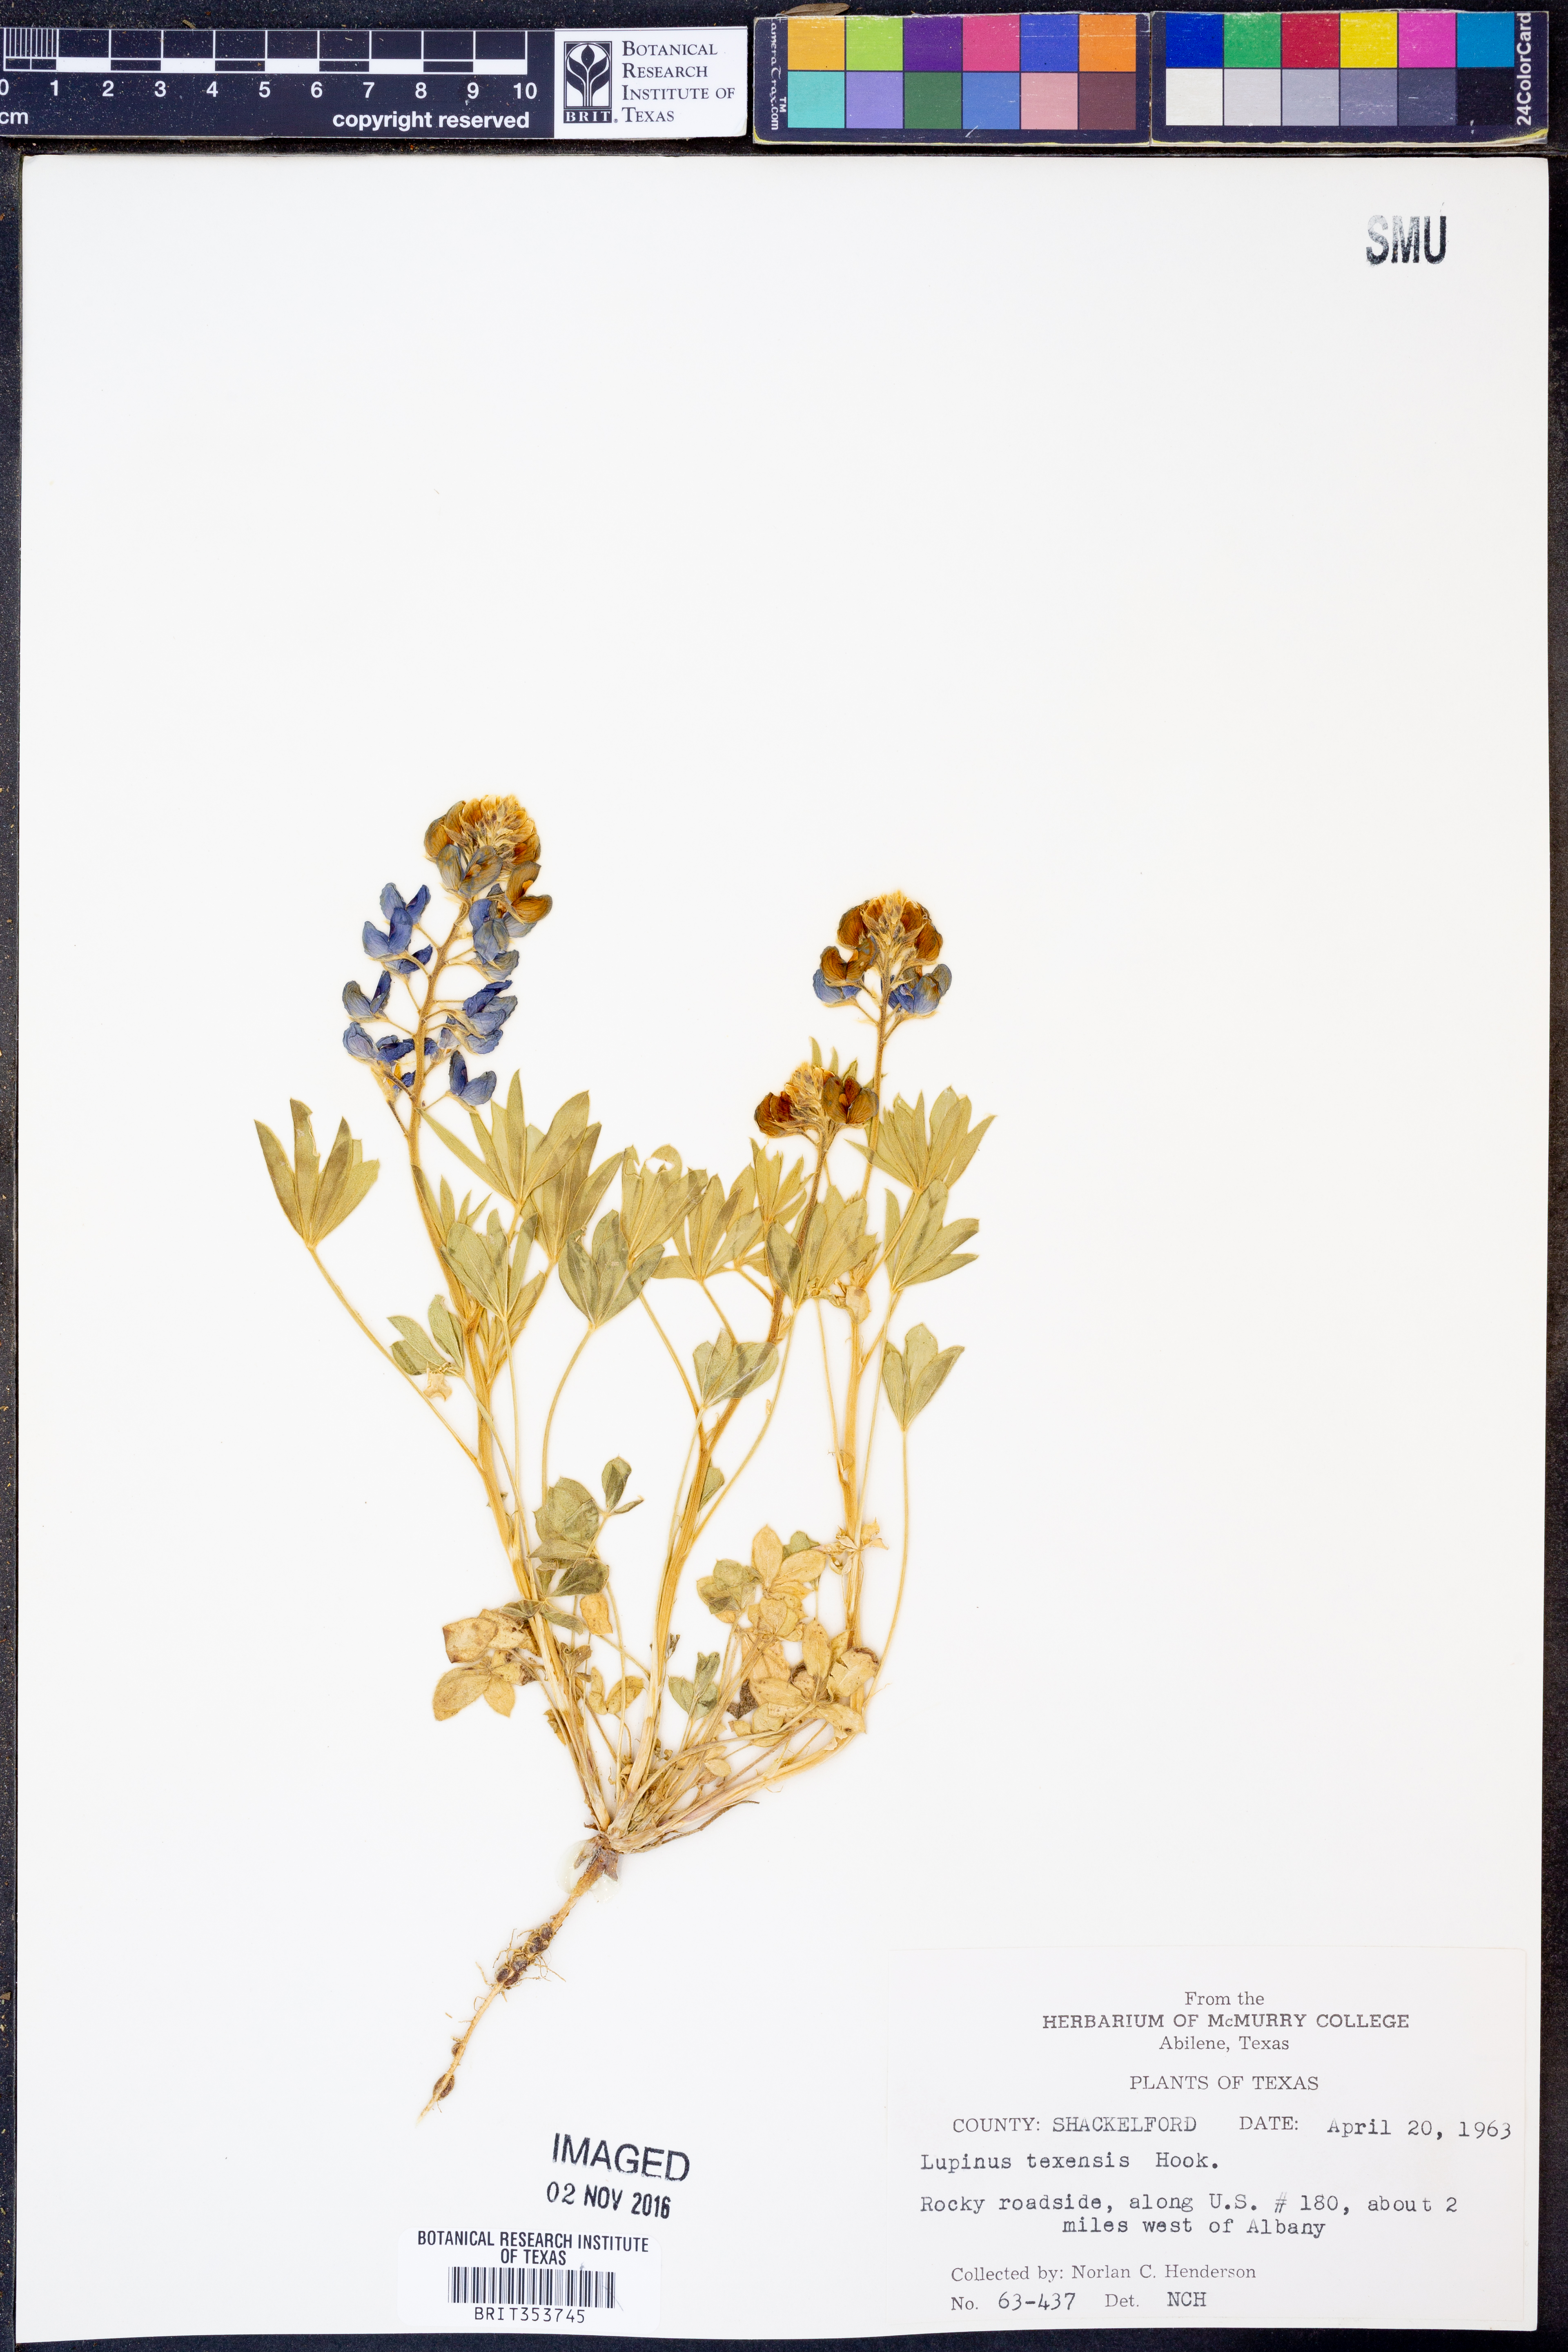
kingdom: Plantae
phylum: Tracheophyta
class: Magnoliopsida
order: Fabales
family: Fabaceae
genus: Lupinus
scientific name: Lupinus texensis
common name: Texas bluebonnet
